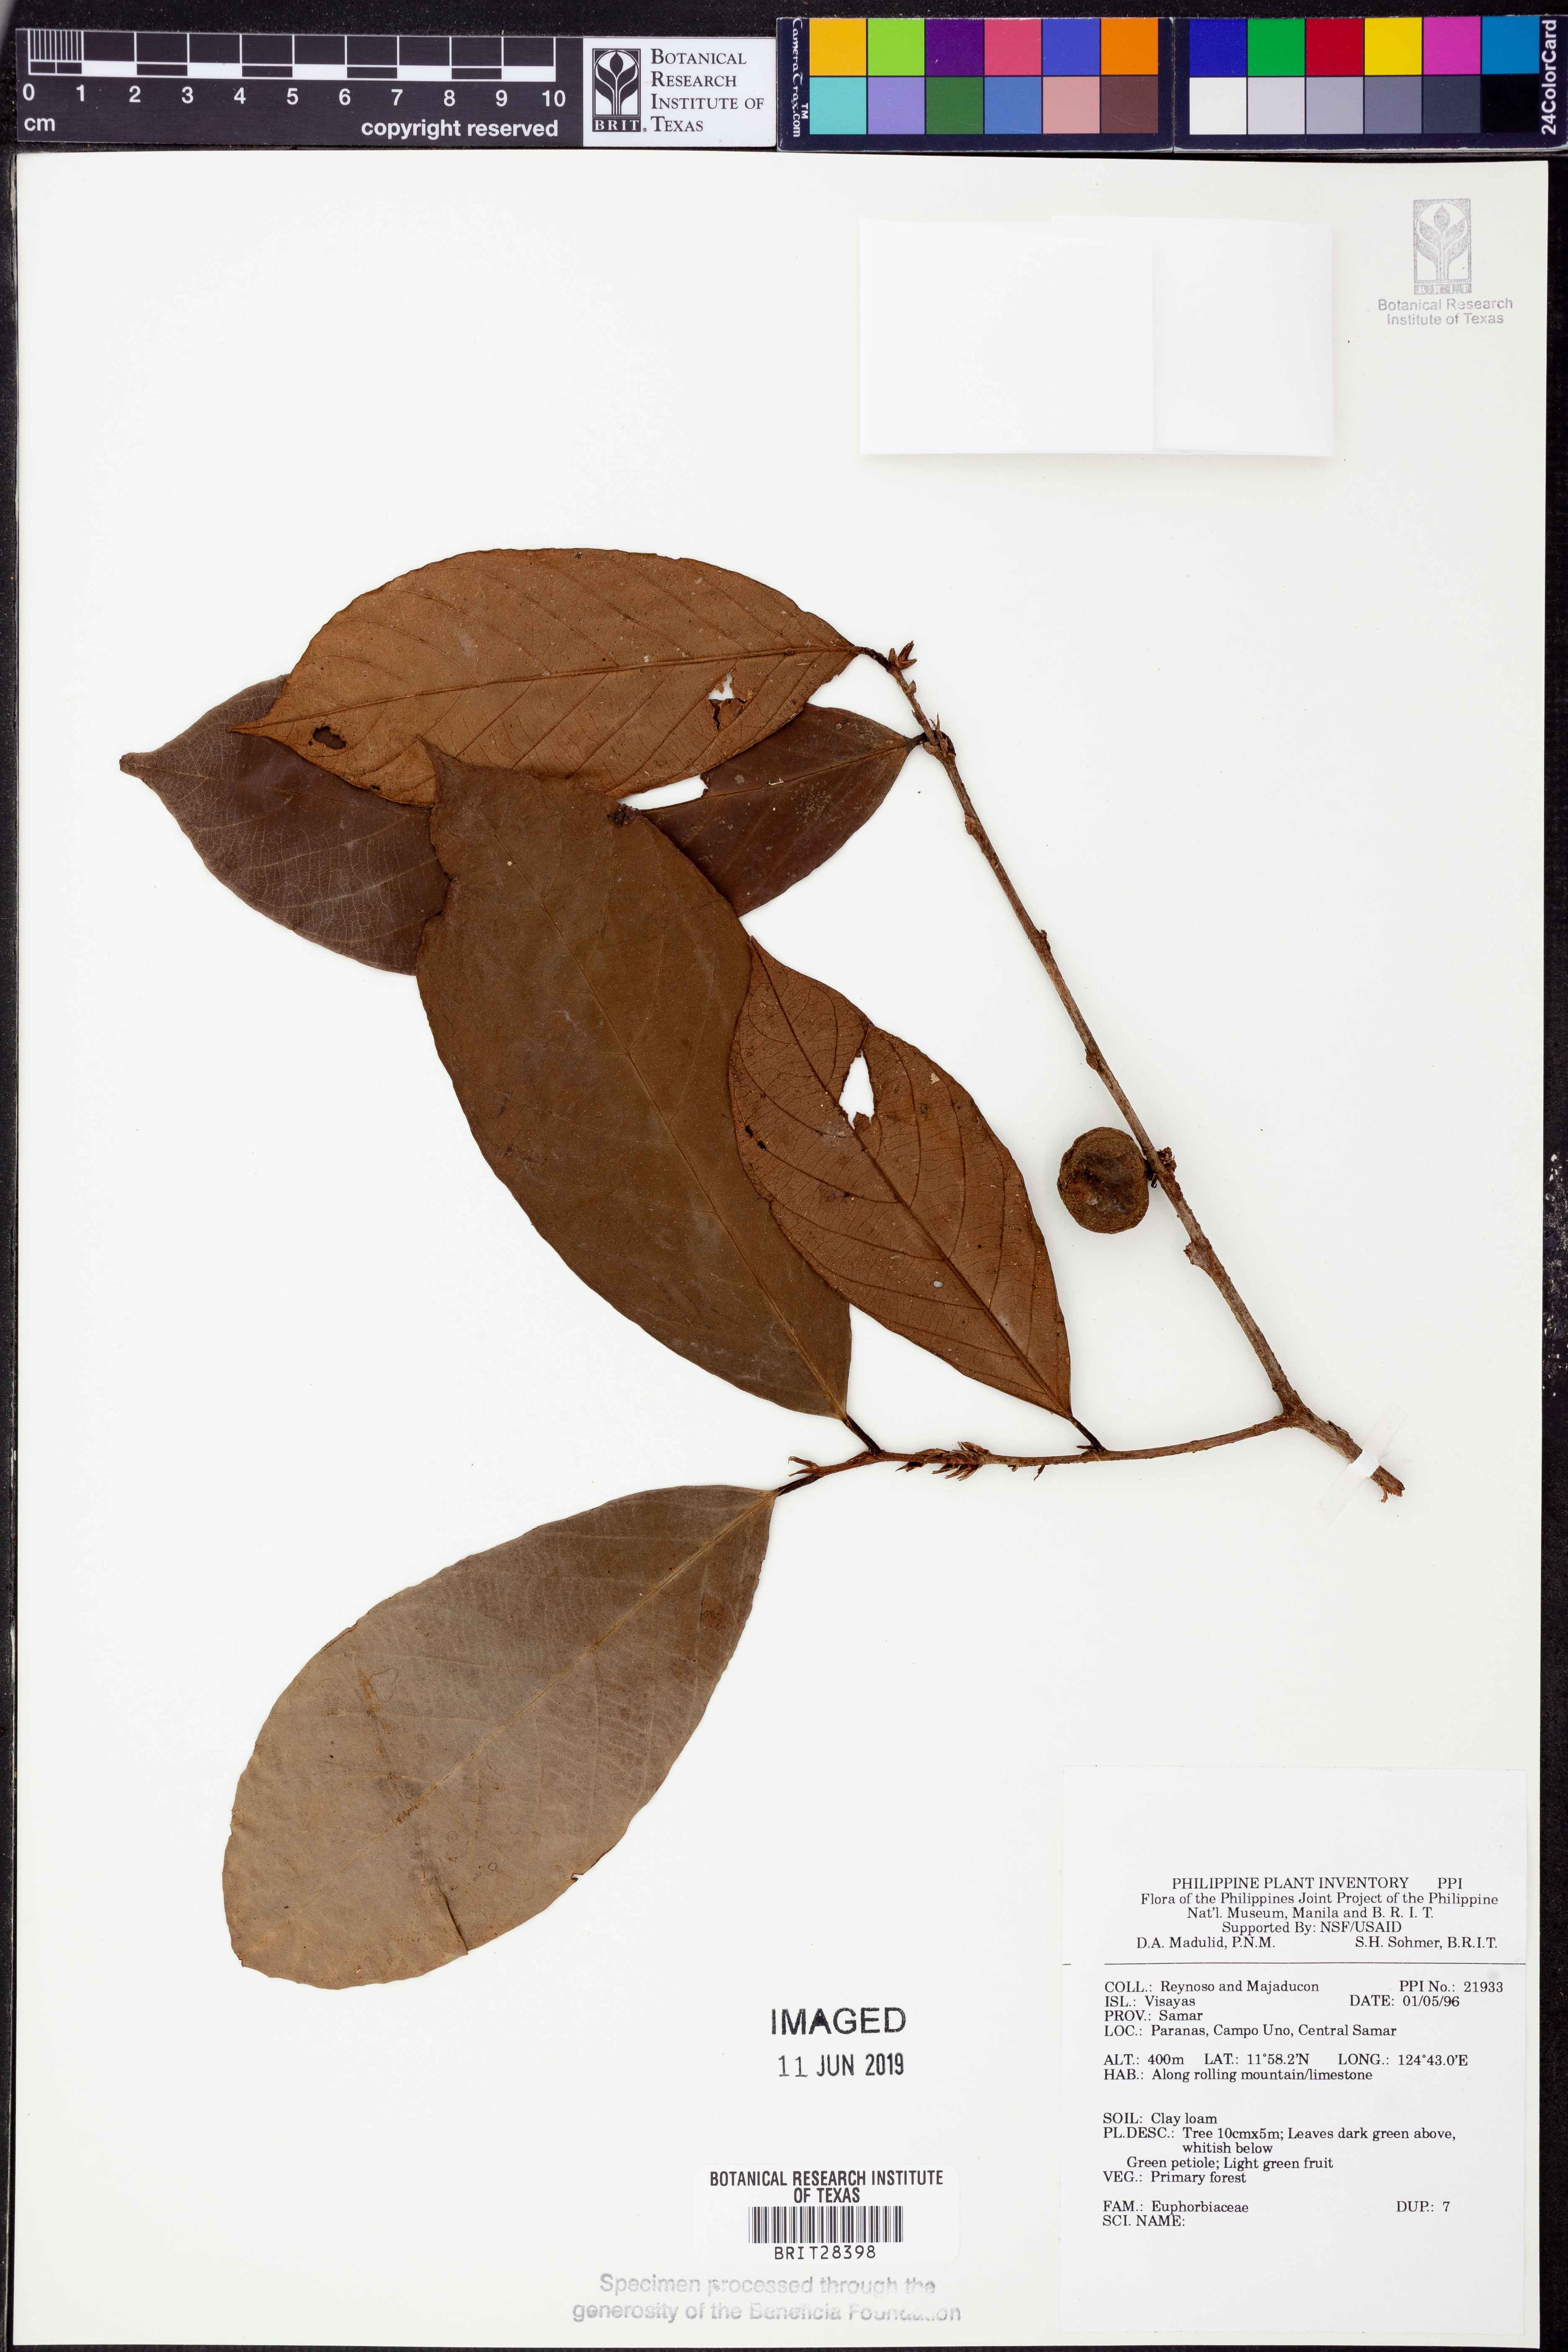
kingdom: Plantae
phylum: Tracheophyta
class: Magnoliopsida
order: Malpighiales
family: Euphorbiaceae
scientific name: Euphorbiaceae
